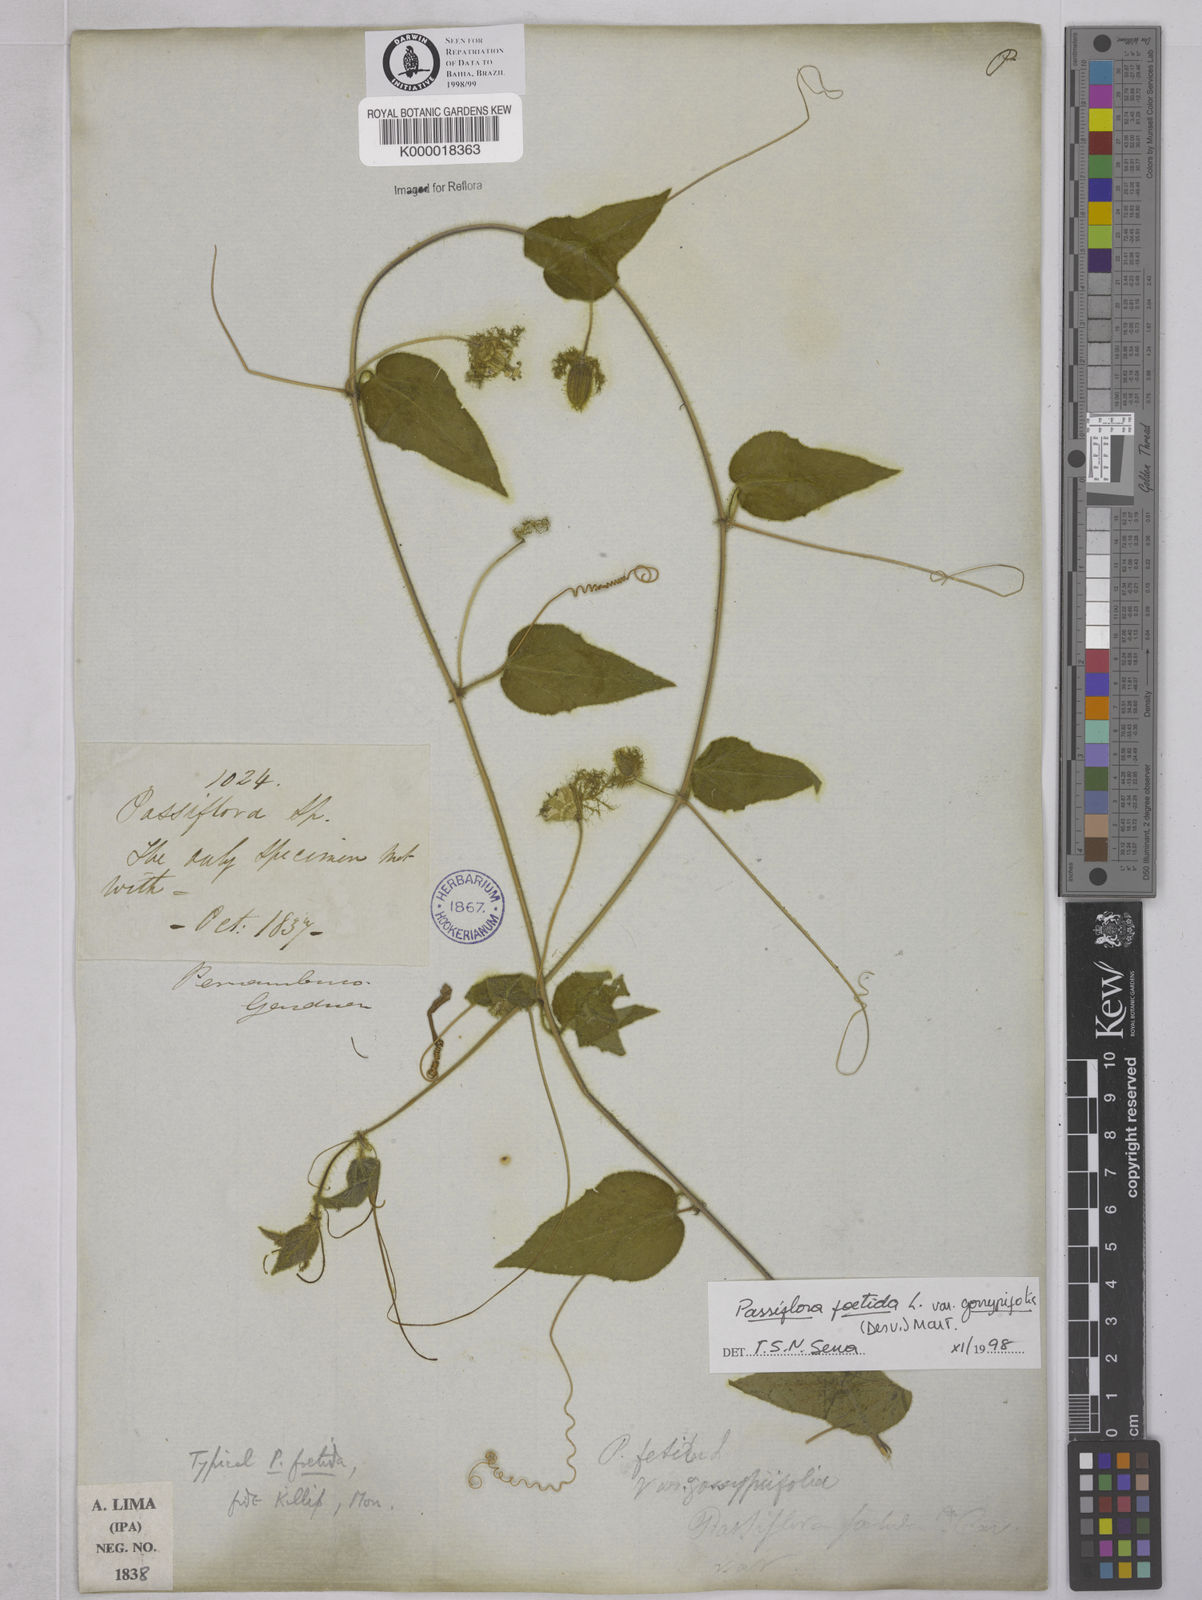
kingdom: Plantae
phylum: Tracheophyta
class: Magnoliopsida
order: Malpighiales
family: Passifloraceae
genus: Passiflora
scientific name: Passiflora foetida
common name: Fetid passionflower
